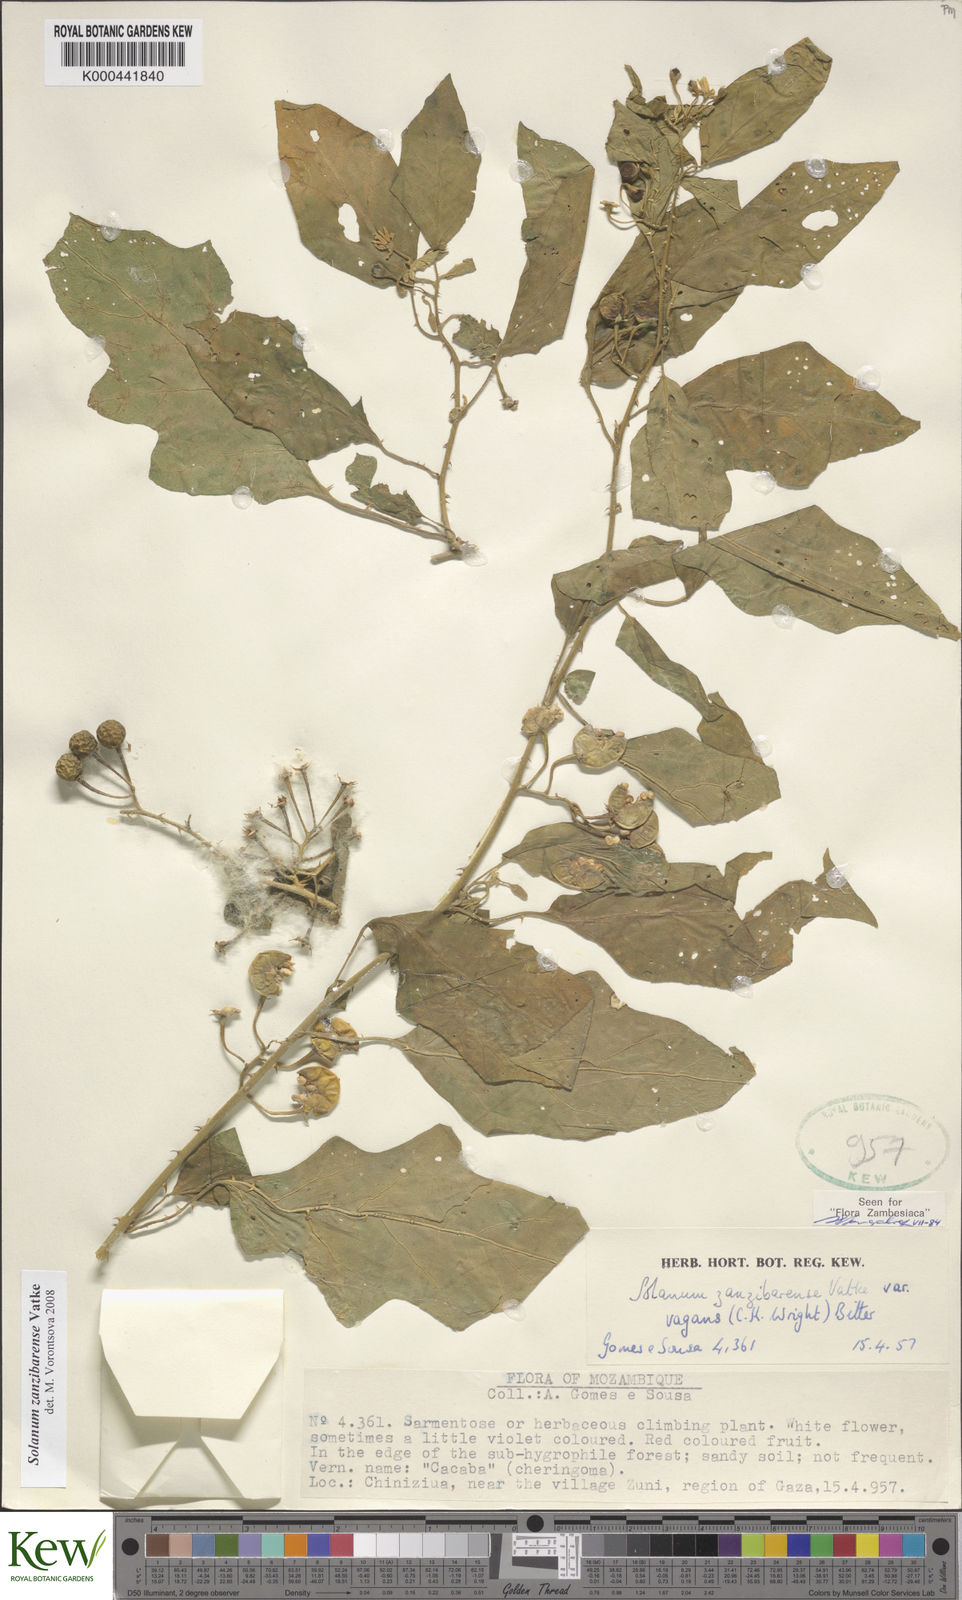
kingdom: Plantae
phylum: Tracheophyta
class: Magnoliopsida
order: Solanales
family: Solanaceae
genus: Solanum
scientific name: Solanum zanzibarense
